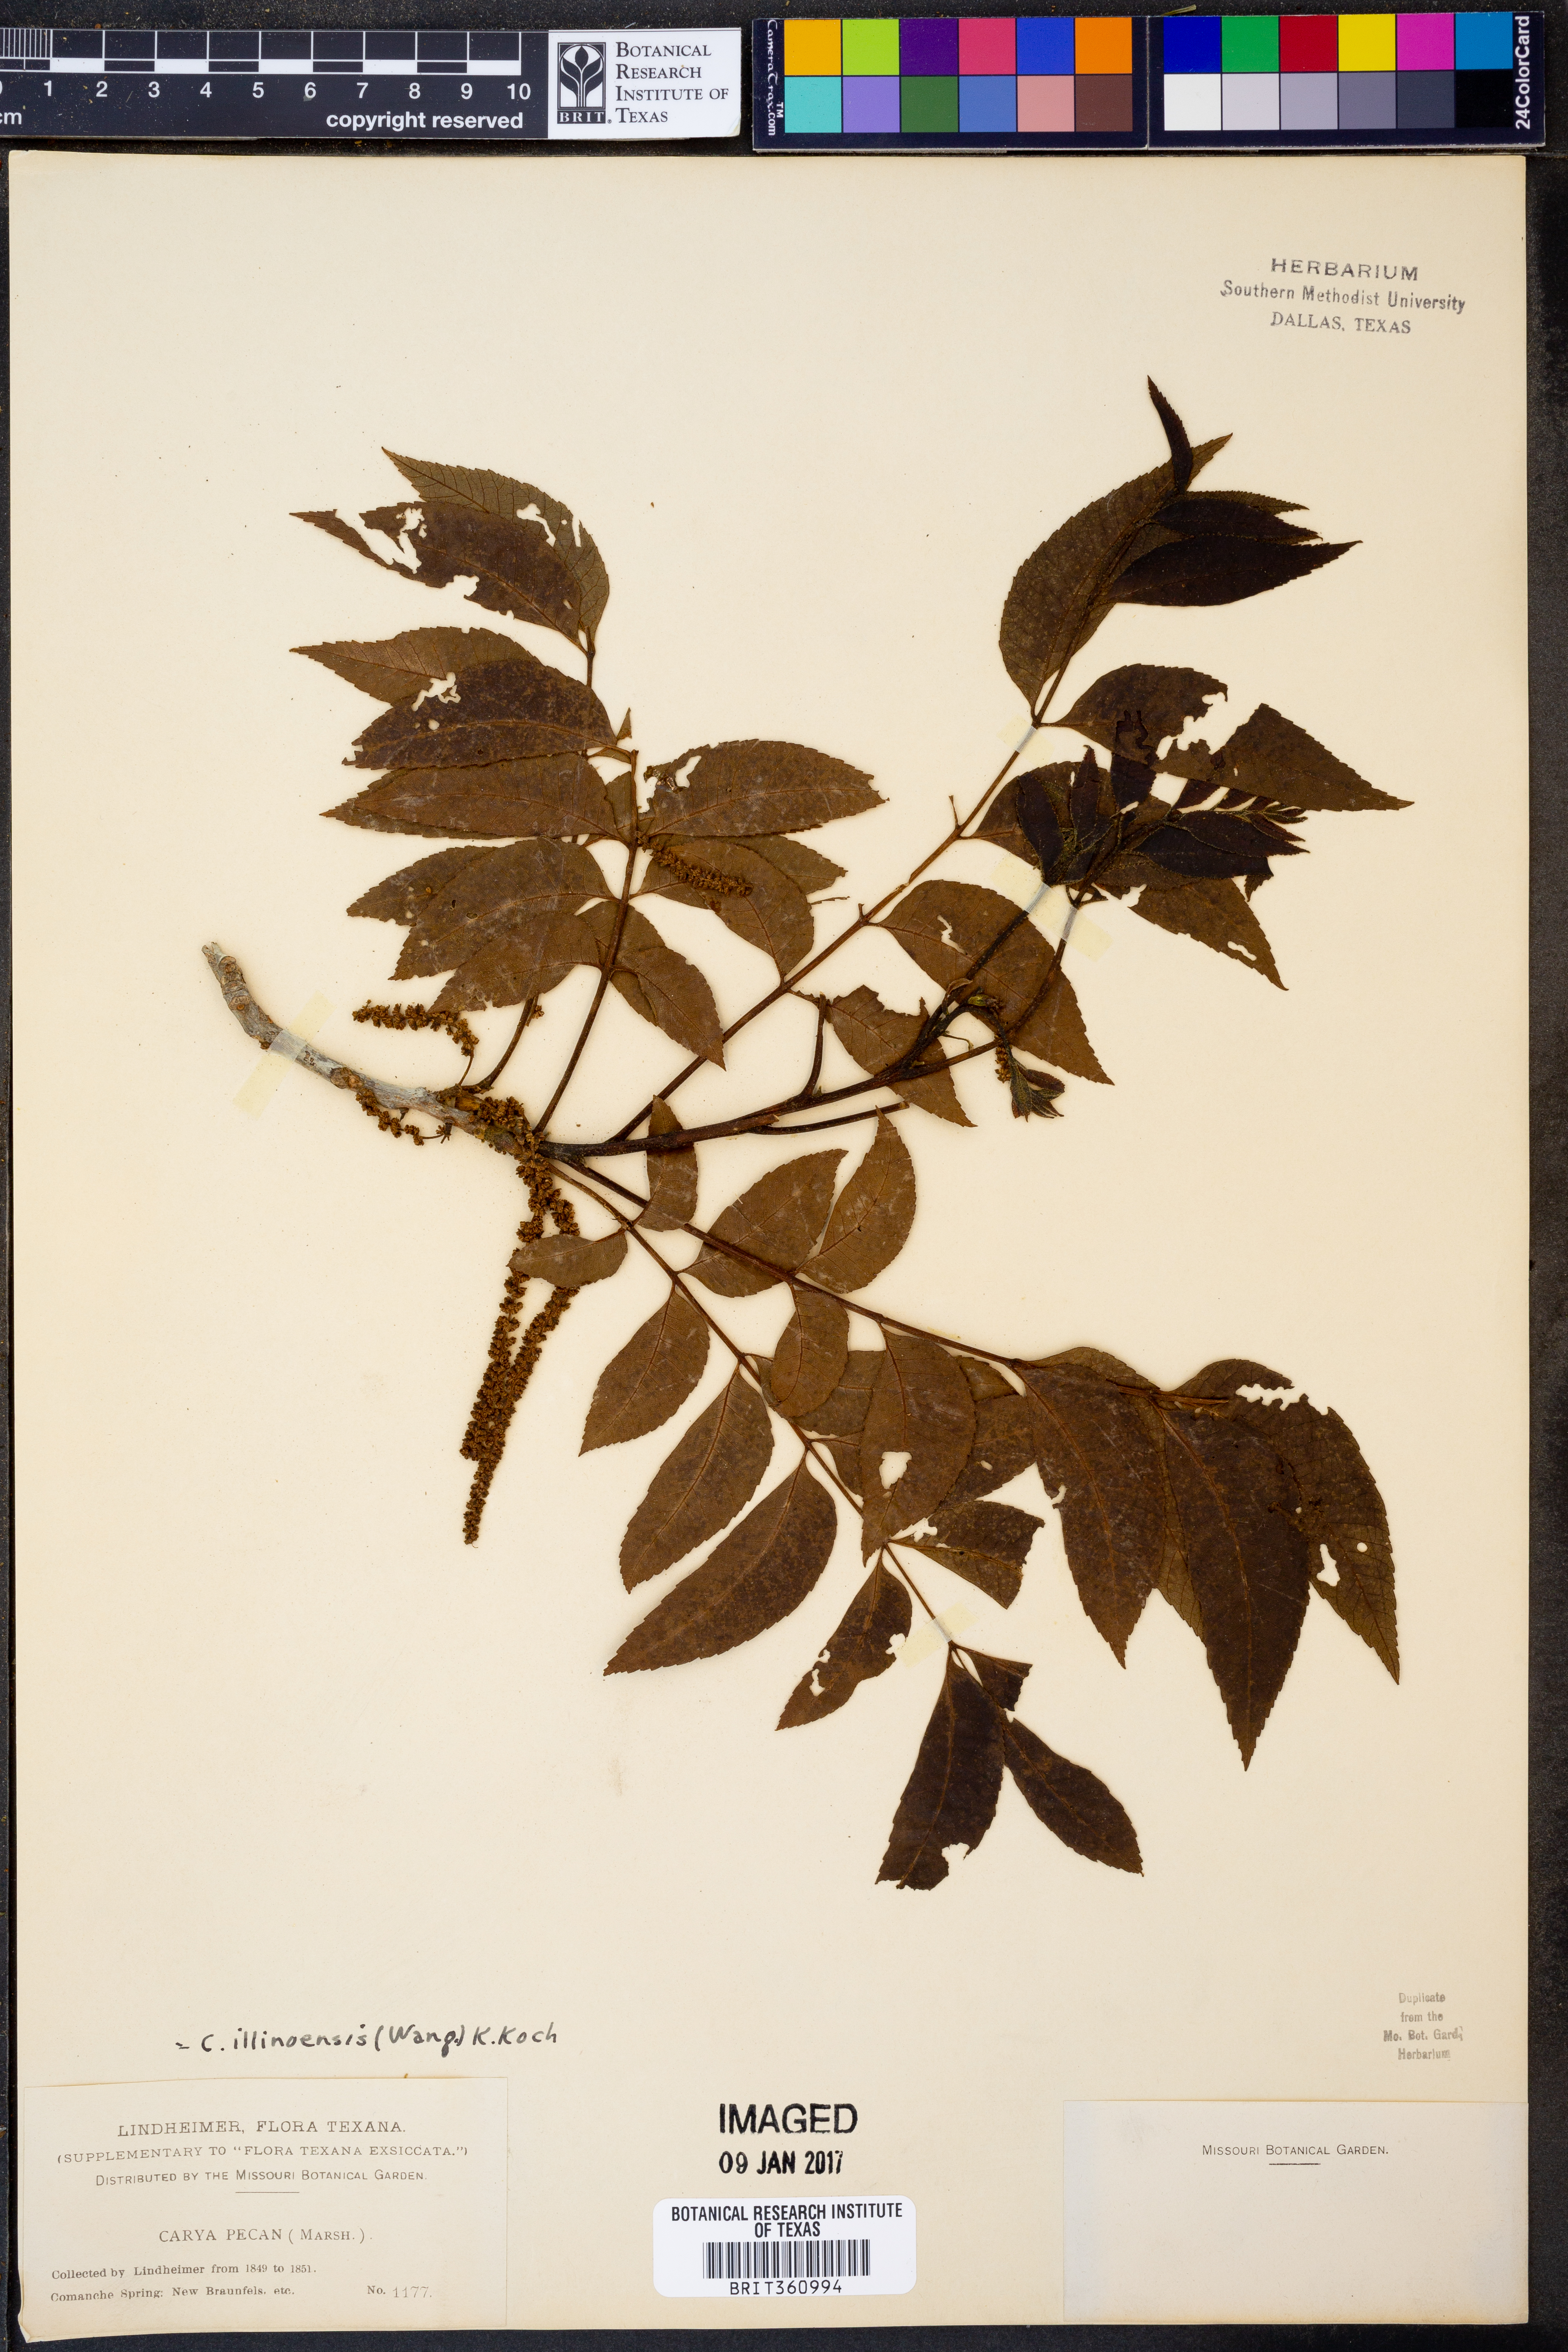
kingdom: Plantae
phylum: Tracheophyta
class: Magnoliopsida
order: Fagales
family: Juglandaceae
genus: Carya
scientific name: Carya illinoinensis
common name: Pecan
